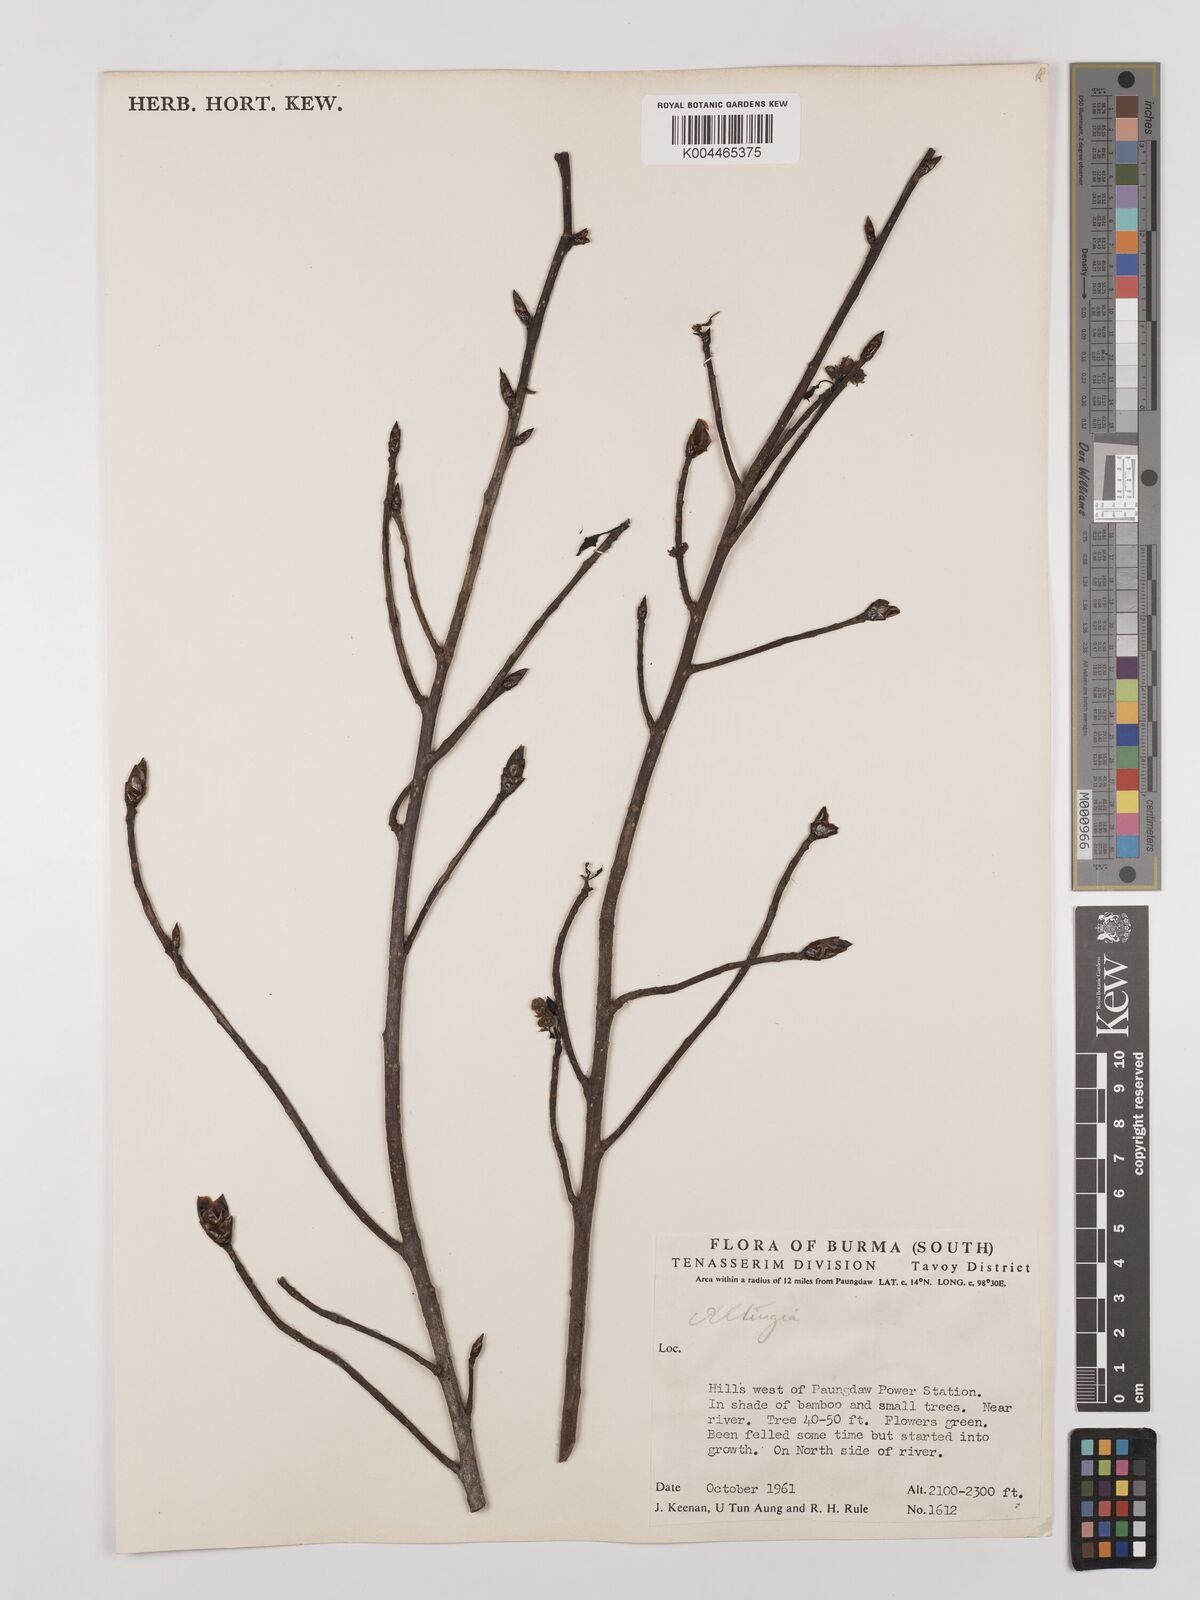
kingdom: Plantae
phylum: Tracheophyta
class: Magnoliopsida
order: Saxifragales
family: Altingiaceae
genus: Liquidambar
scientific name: Liquidambar
